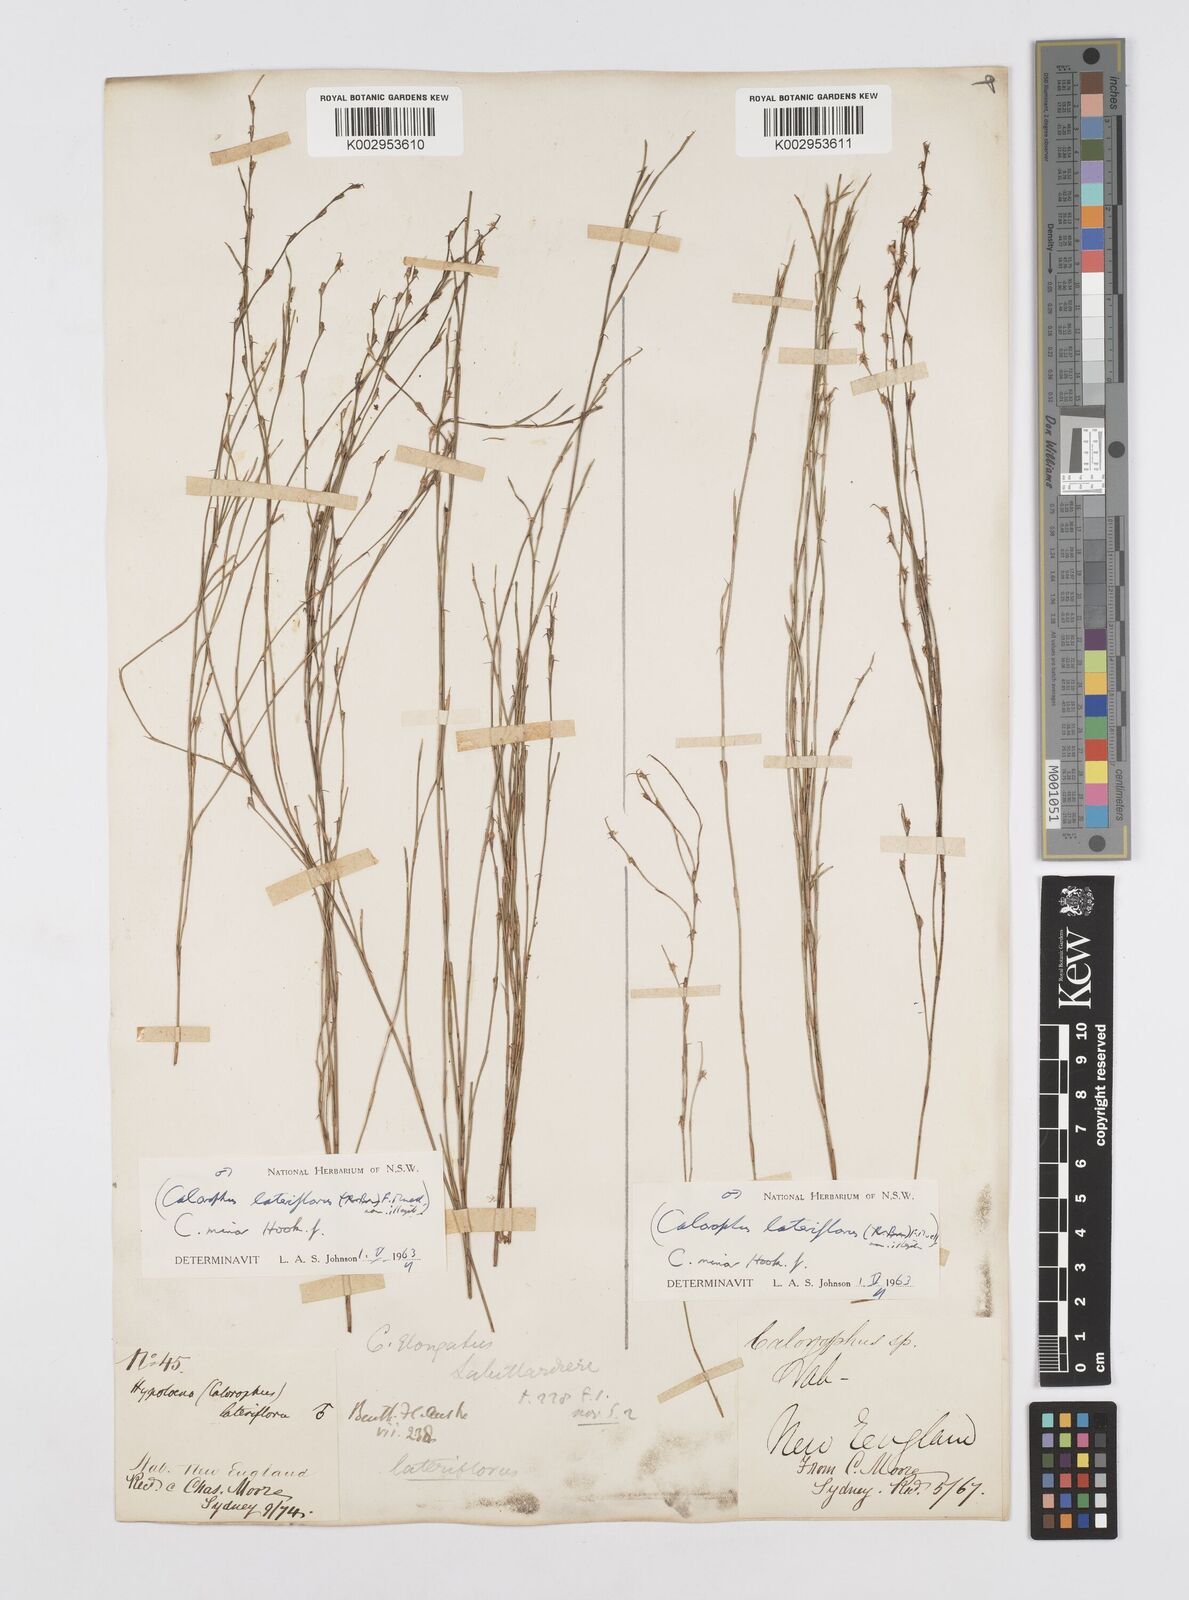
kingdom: Plantae
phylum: Tracheophyta
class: Liliopsida
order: Poales
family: Restionaceae
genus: Empodisma
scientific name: Empodisma minus
